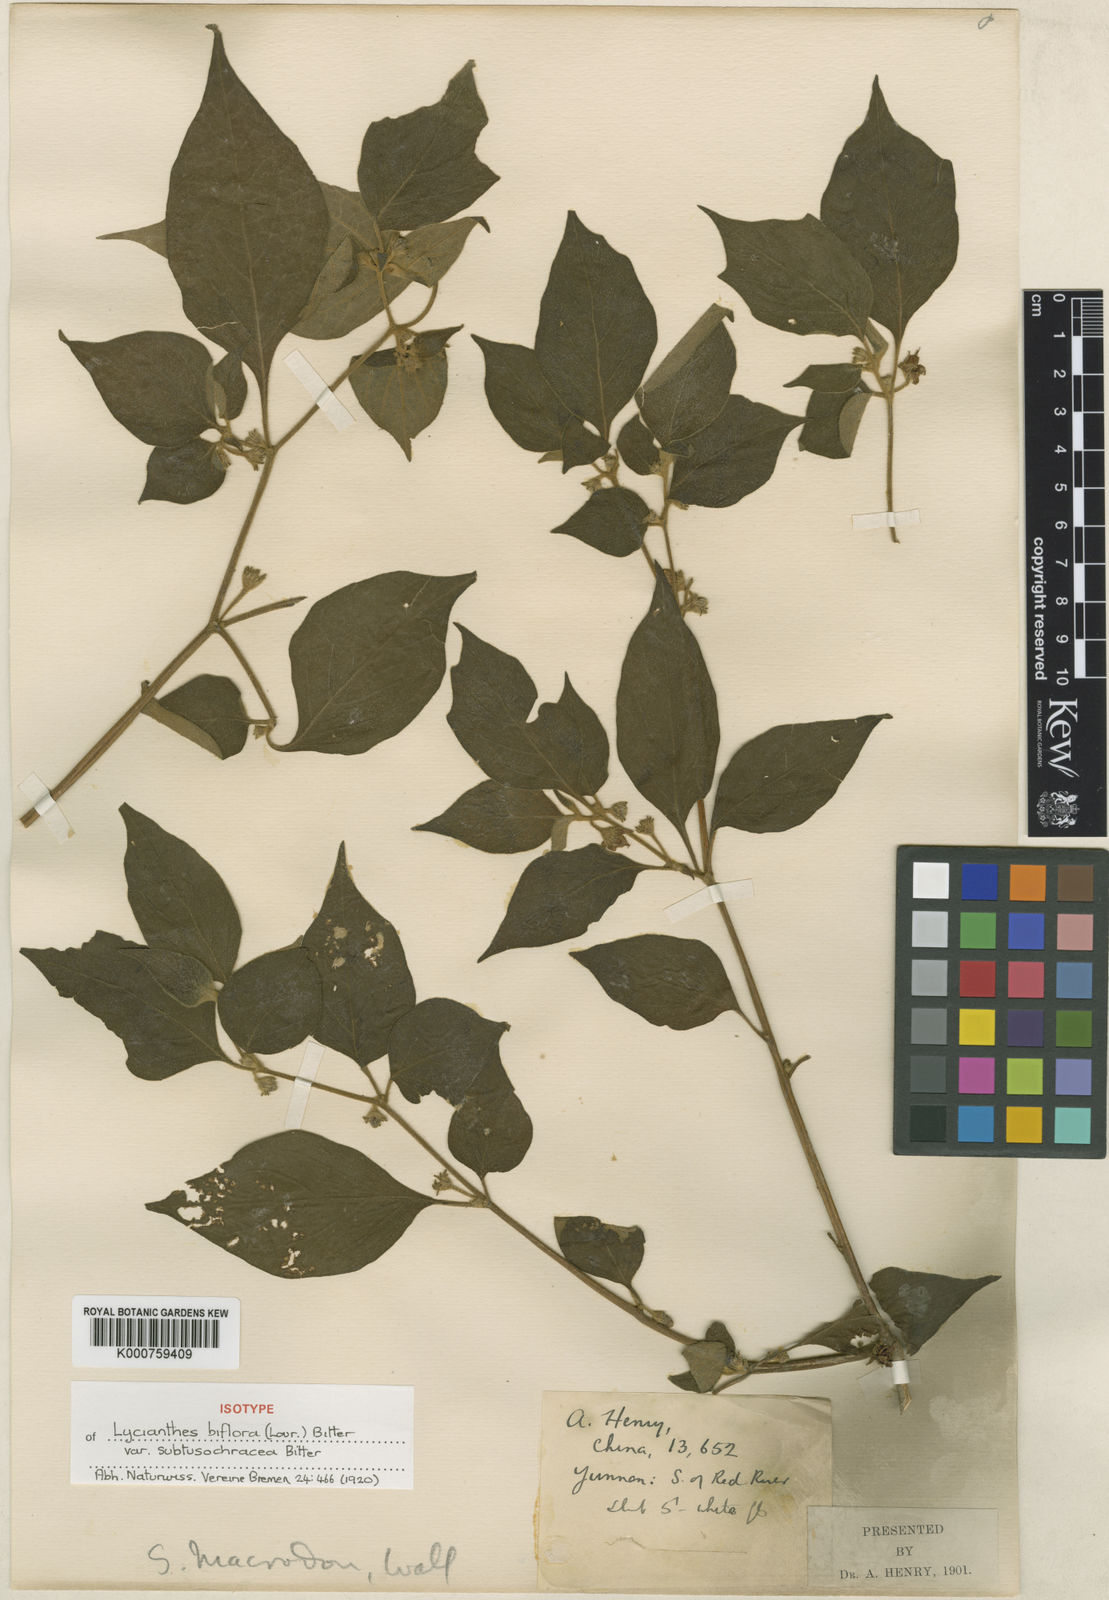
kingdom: Plantae
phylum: Tracheophyta
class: Magnoliopsida
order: Solanales
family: Solanaceae
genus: Lycianthes
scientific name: Lycianthes biflora
